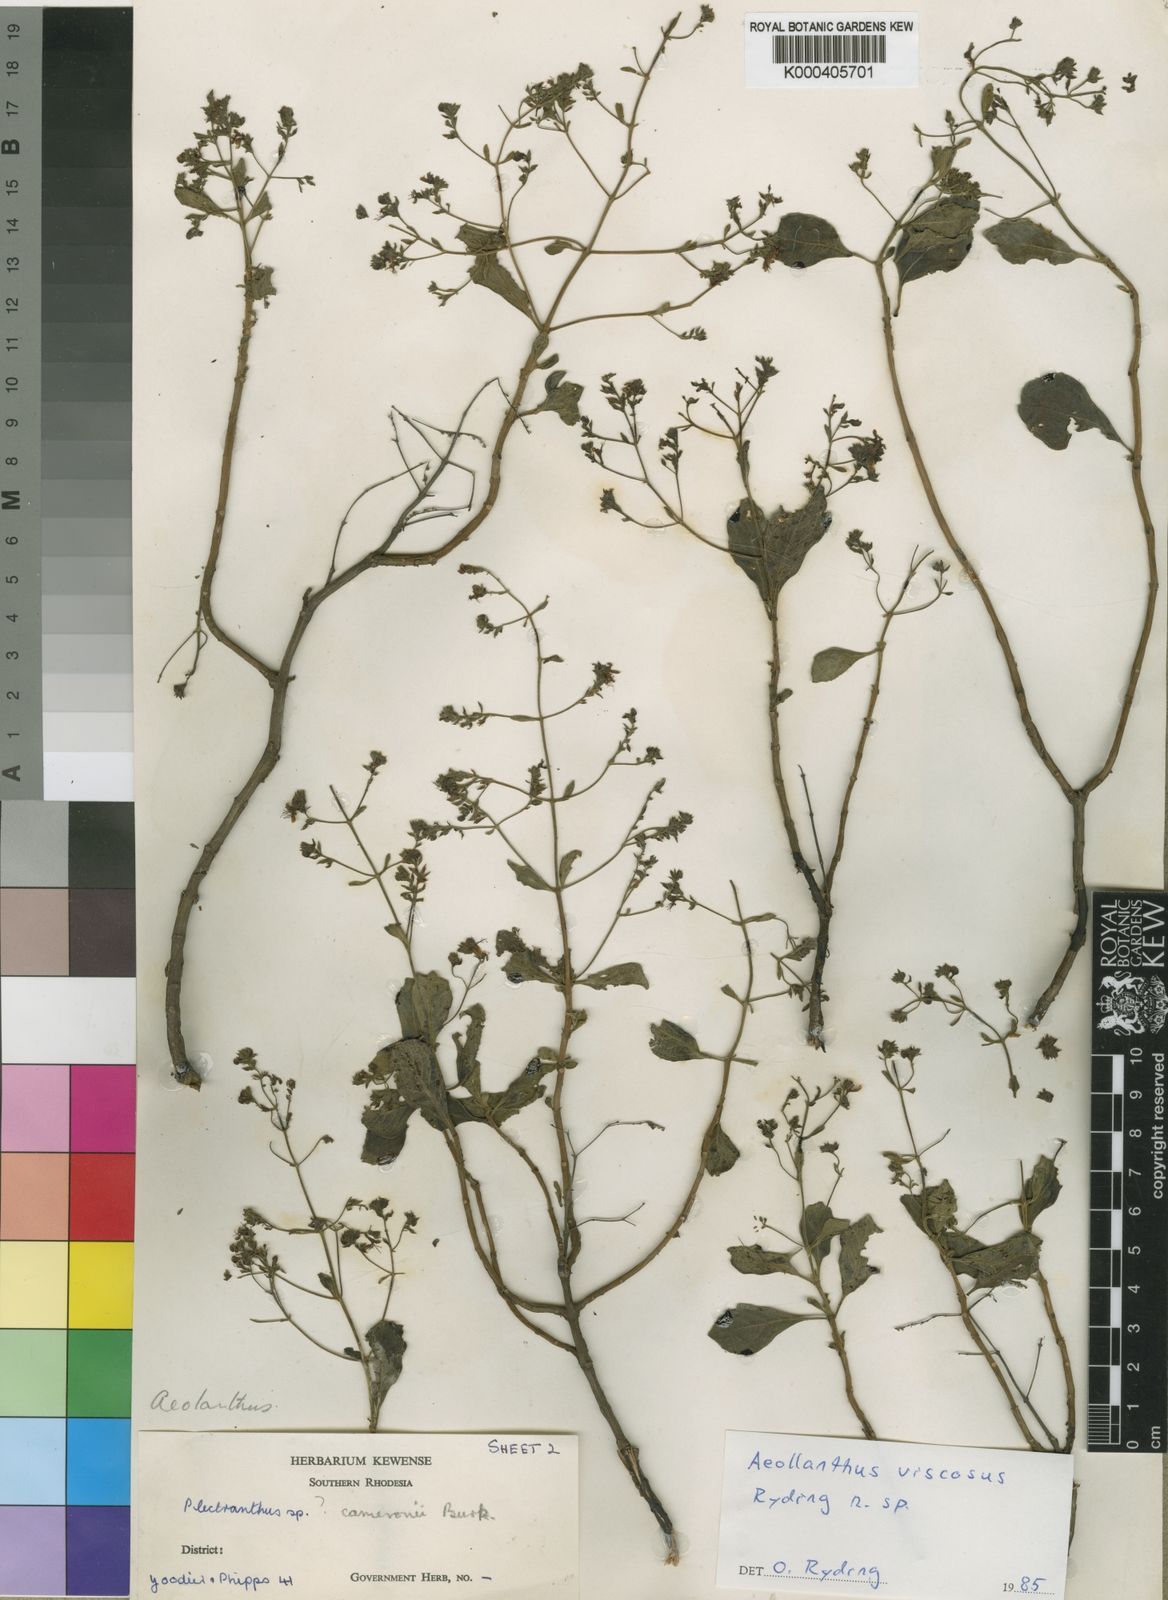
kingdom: Plantae
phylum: Tracheophyta
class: Magnoliopsida
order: Lamiales
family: Lamiaceae
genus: Aeollanthus
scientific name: Aeollanthus viscosus
